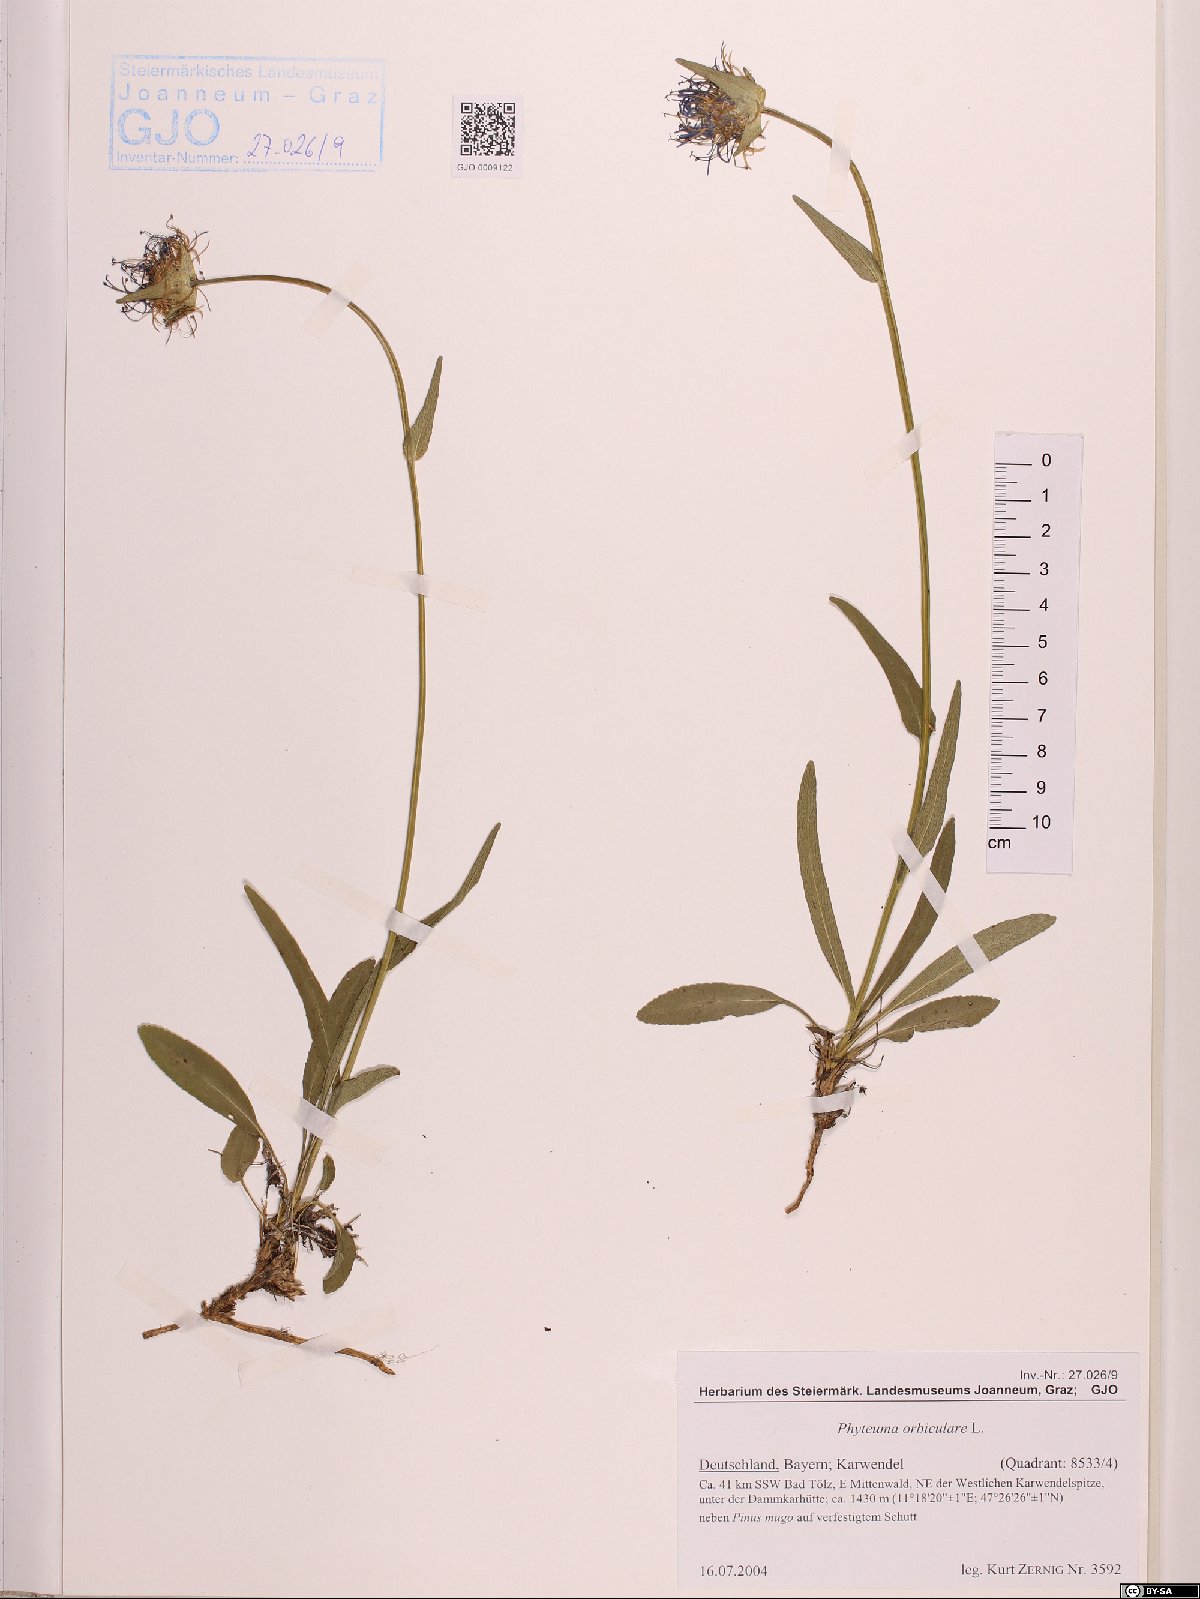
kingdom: Plantae
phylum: Tracheophyta
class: Magnoliopsida
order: Asterales
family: Campanulaceae
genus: Phyteuma
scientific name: Phyteuma orbiculare
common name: Round-headed rampion
